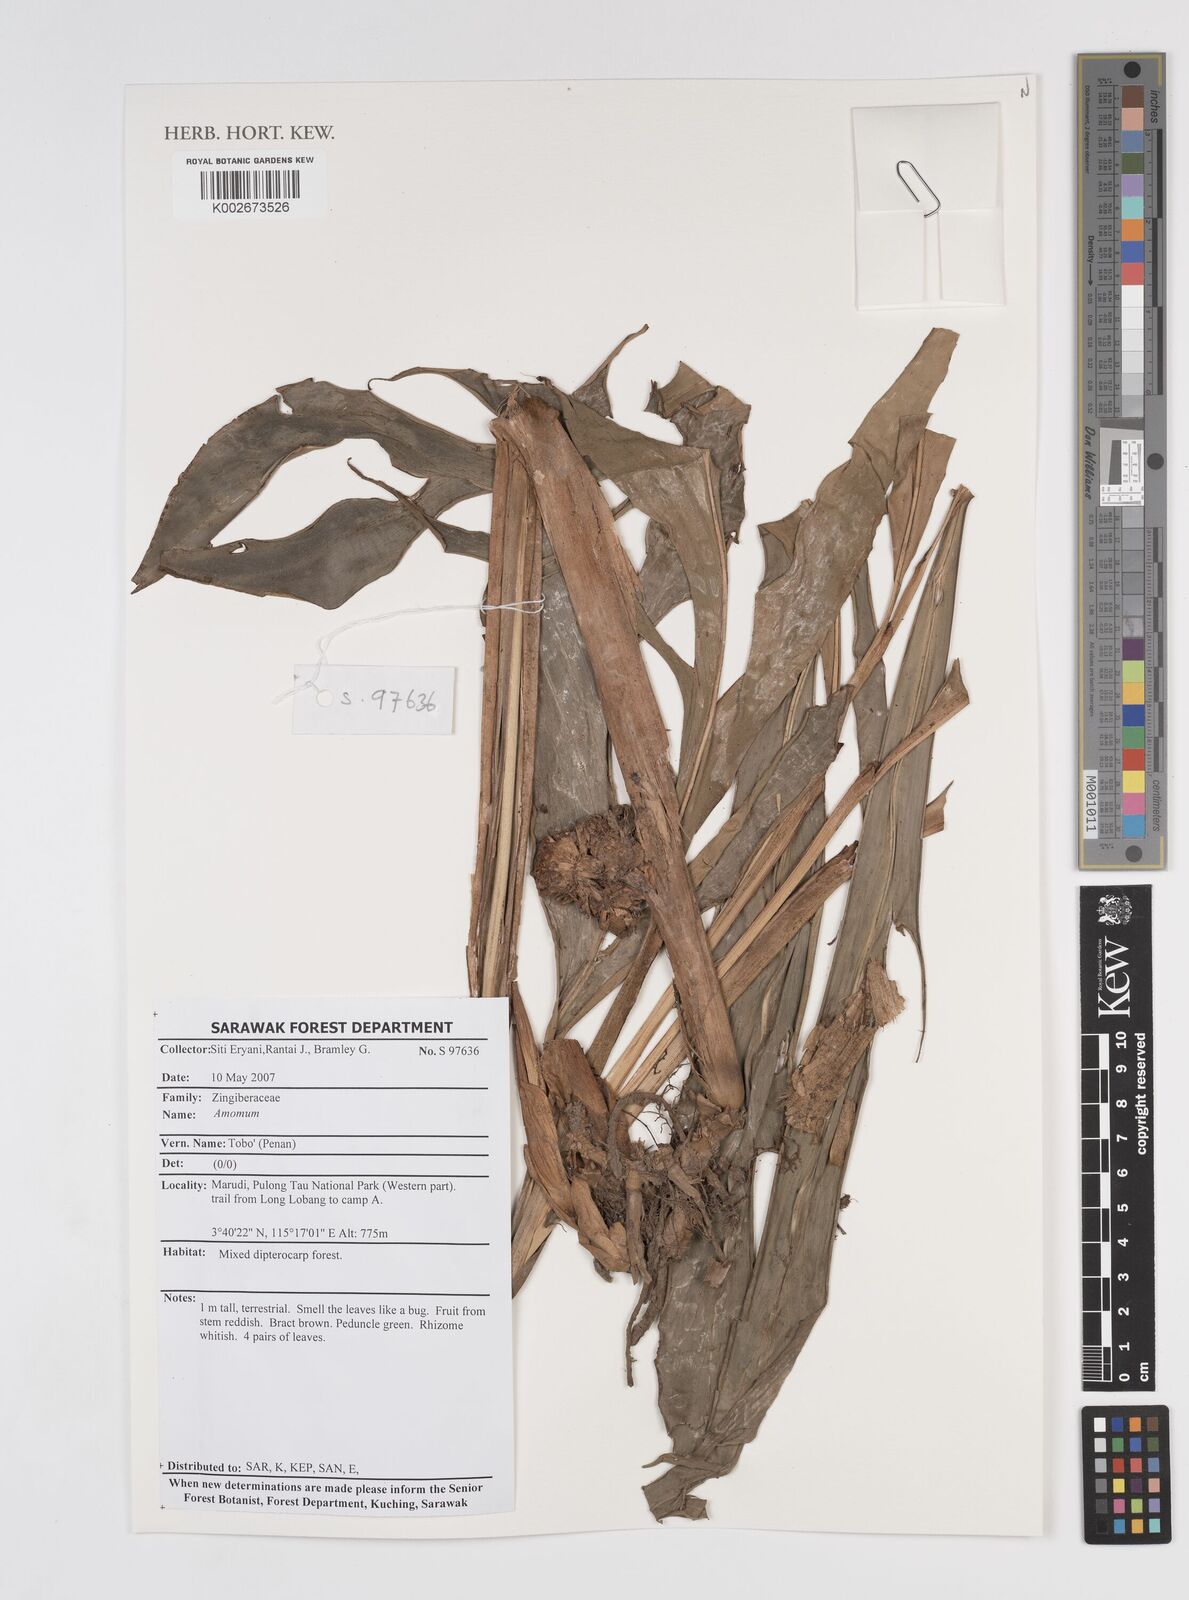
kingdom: Plantae
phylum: Tracheophyta
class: Liliopsida
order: Zingiberales
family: Zingiberaceae
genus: Amomum
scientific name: Amomum
